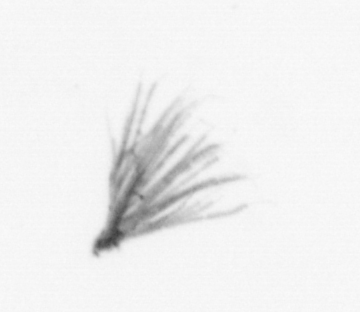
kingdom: Animalia
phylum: Arthropoda
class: Maxillopoda
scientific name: Maxillopoda
